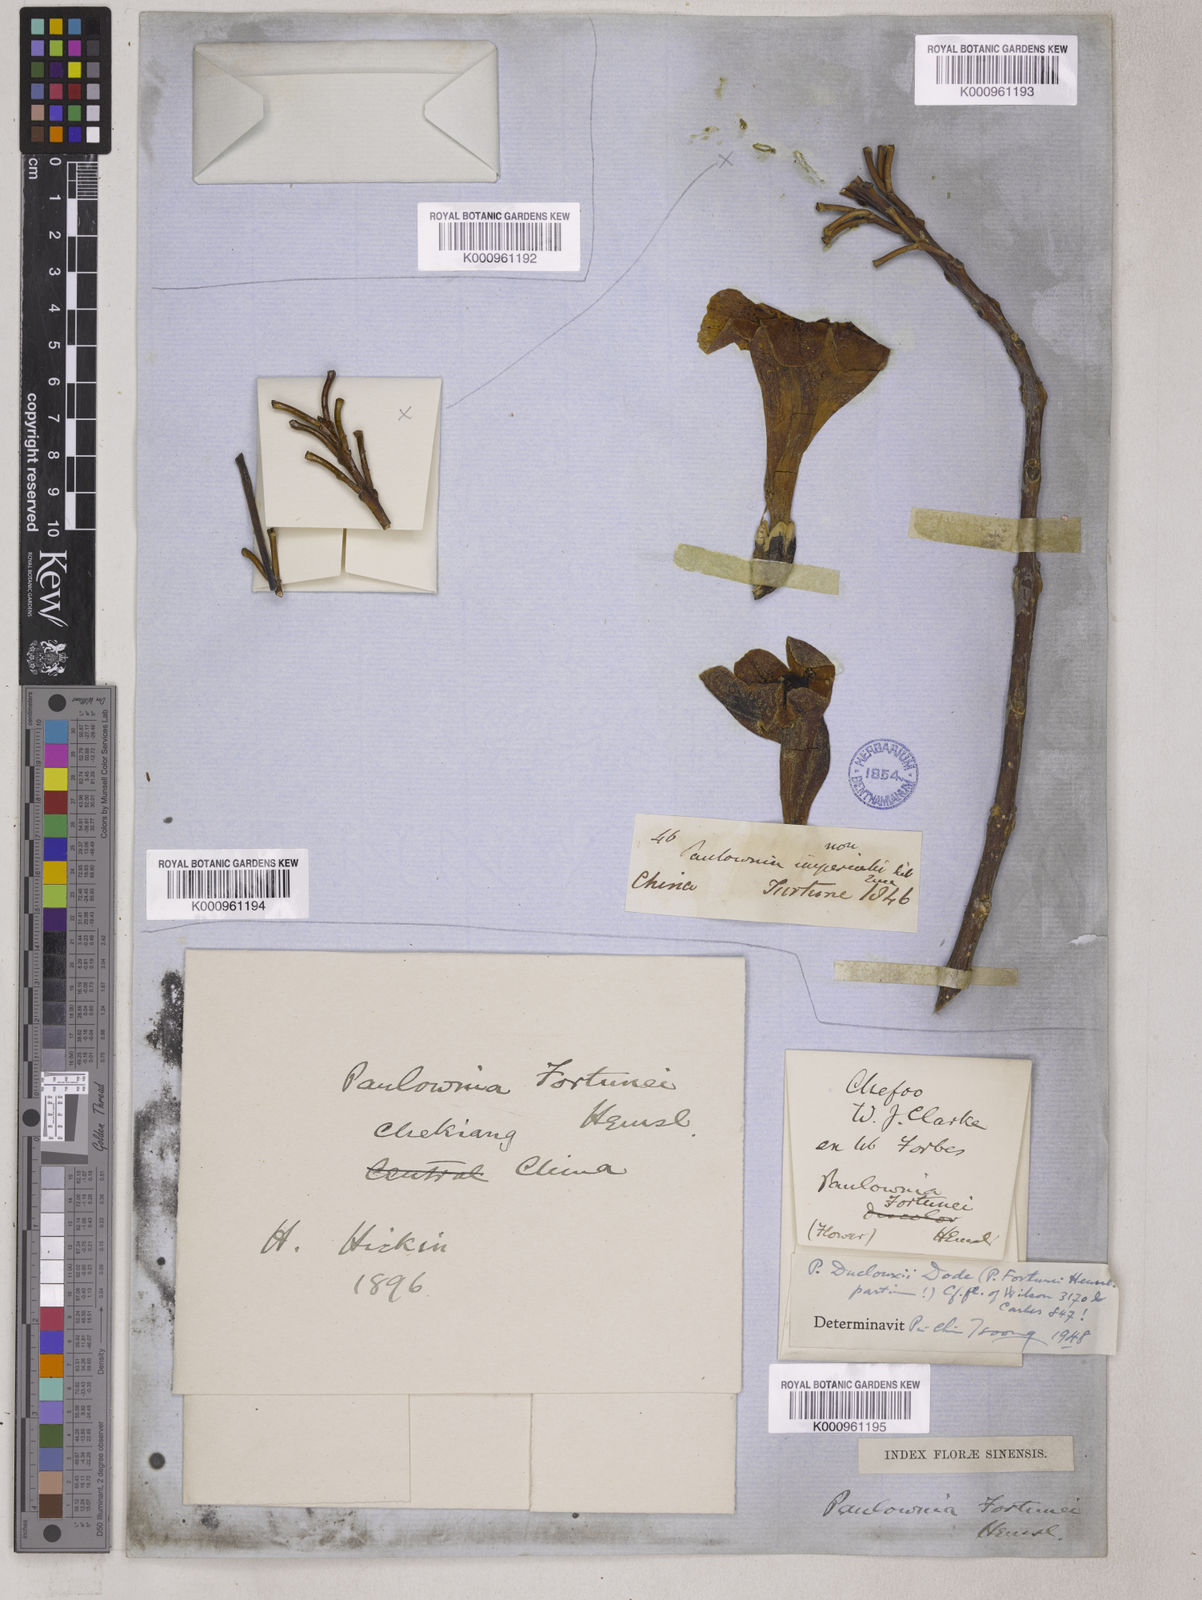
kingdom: Plantae
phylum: Tracheophyta
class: Magnoliopsida
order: Lamiales
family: Paulowniaceae
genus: Paulownia
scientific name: Paulownia fortunei
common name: Dragontree
